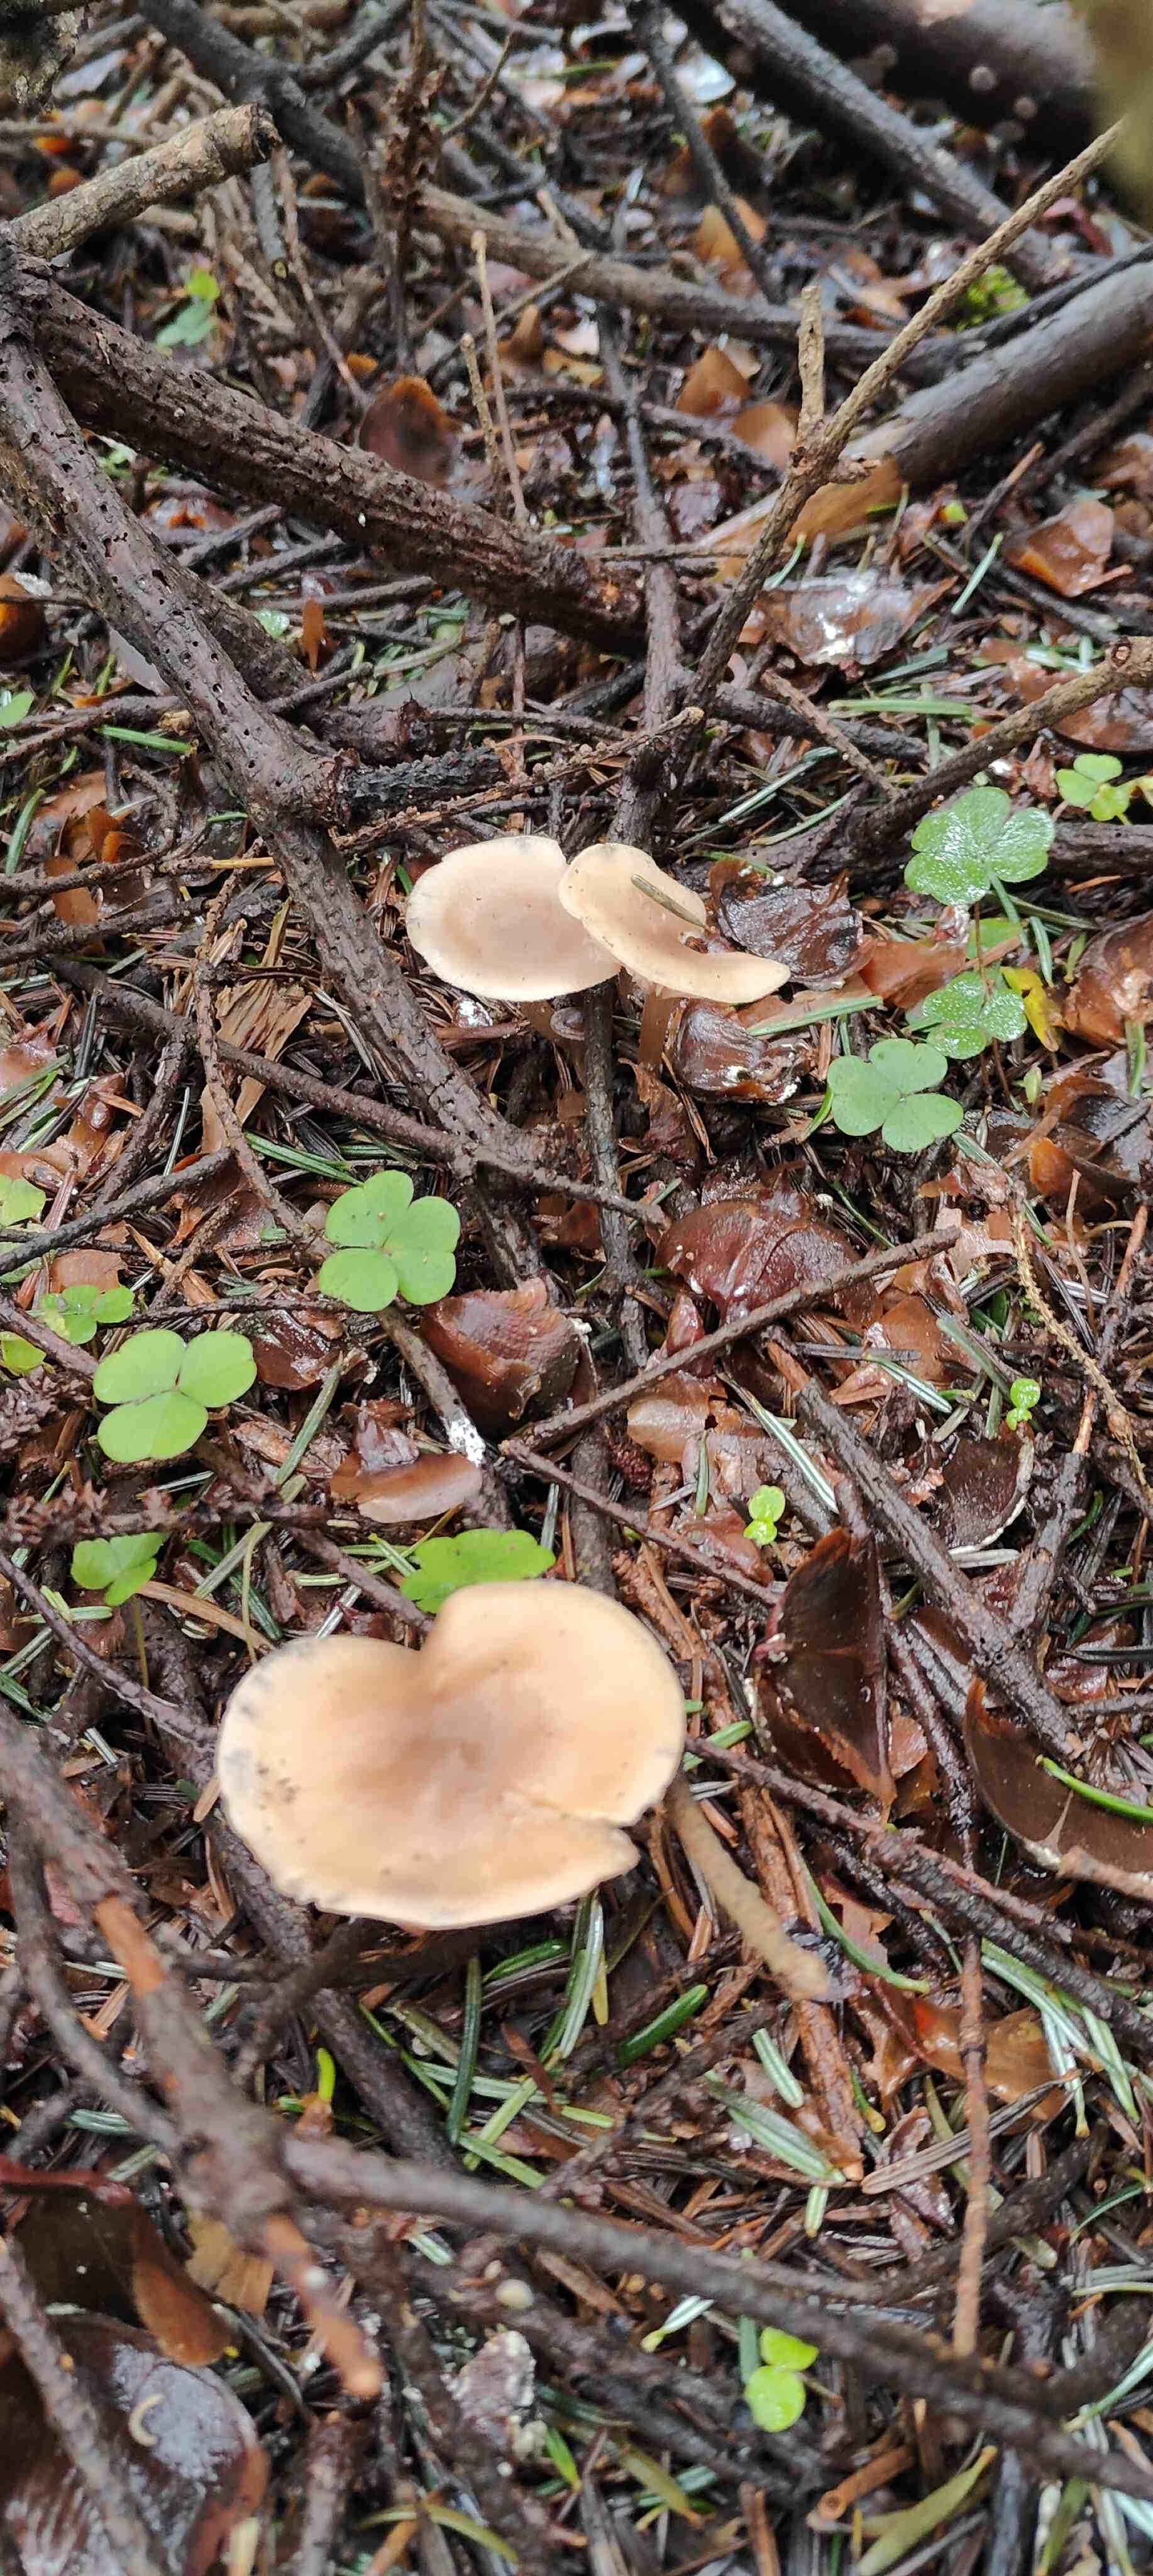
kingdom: Fungi
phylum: Basidiomycota
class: Agaricomycetes
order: Agaricales
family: Pseudoclitocybaceae
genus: Pseudoclitocybe
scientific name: Pseudoclitocybe cyathiformis
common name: almindelig bægertragthat
